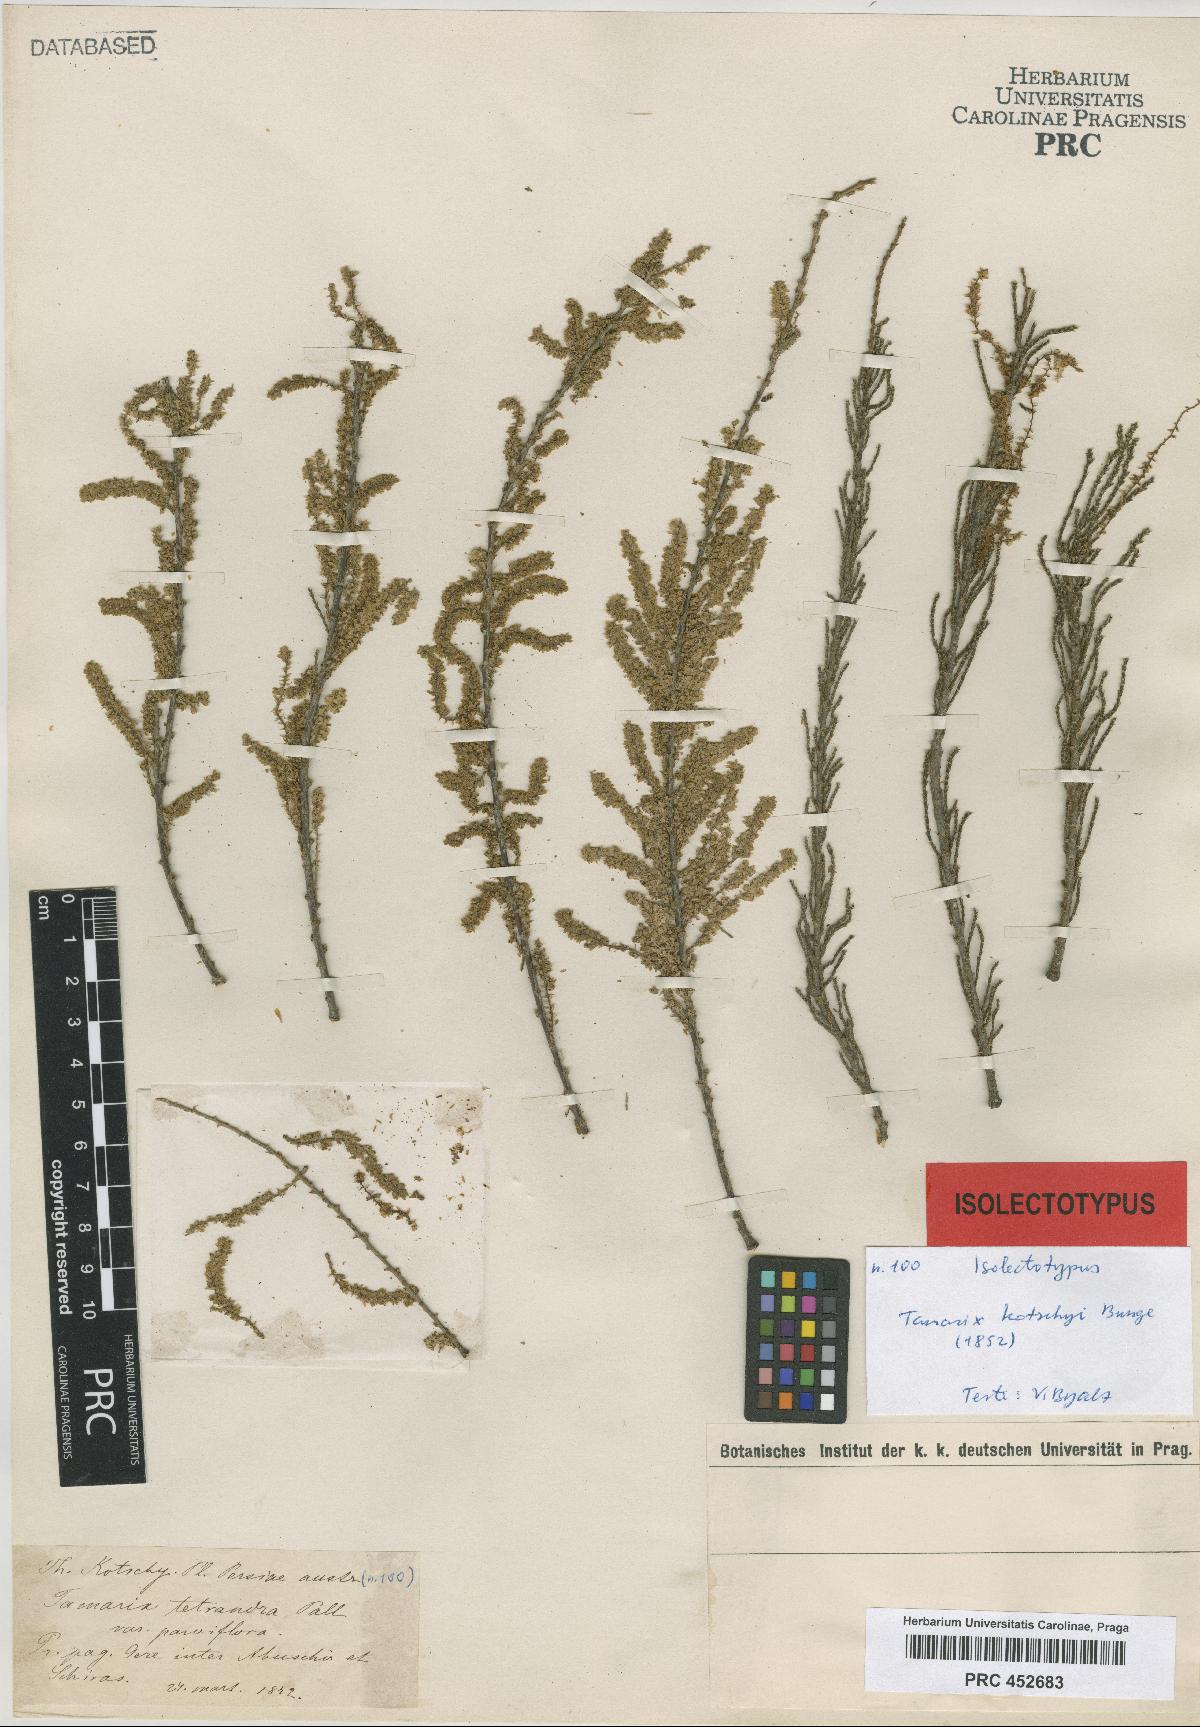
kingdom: Plantae
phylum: Tracheophyta
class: Magnoliopsida
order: Caryophyllales
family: Tamaricaceae
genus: Tamarix
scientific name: Tamarix kotschyi
